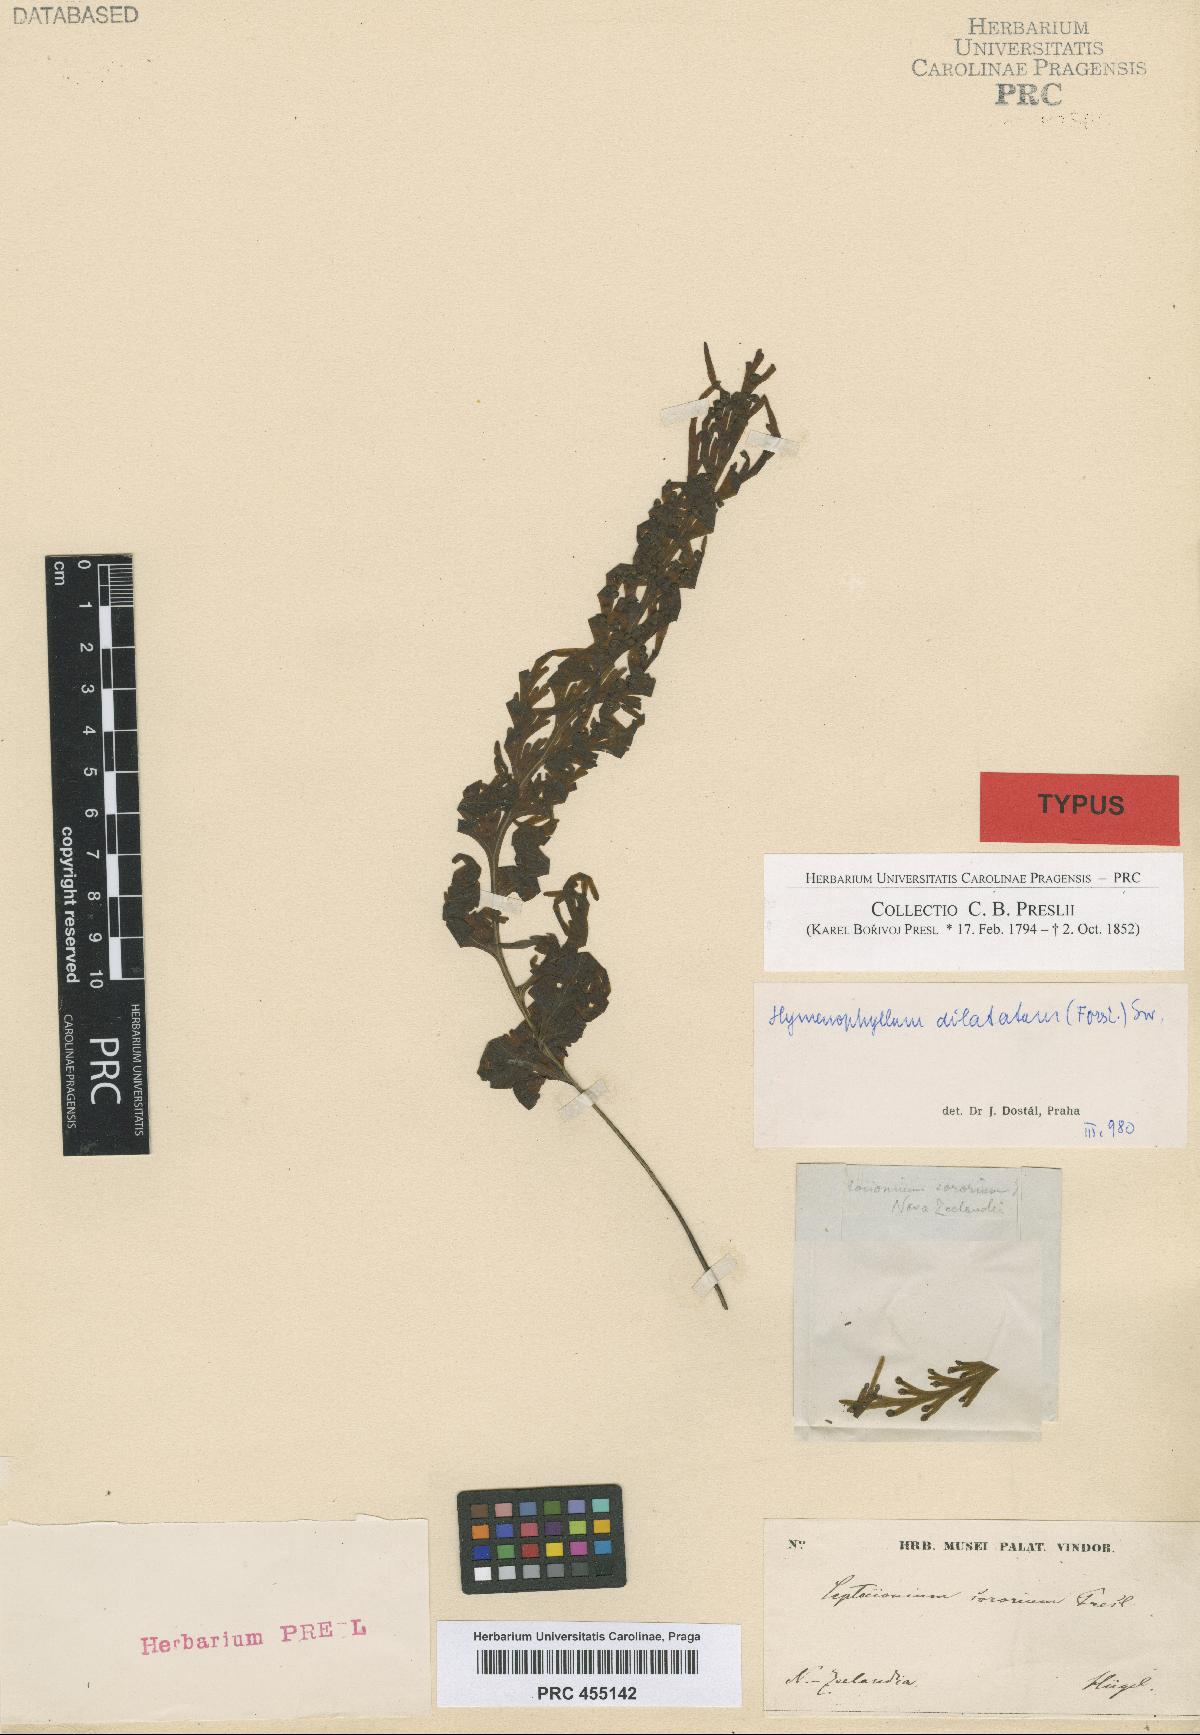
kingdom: Plantae
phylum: Tracheophyta
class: Polypodiopsida
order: Hymenophyllales
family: Hymenophyllaceae
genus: Hymenophyllum
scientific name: Hymenophyllum dilatatum
